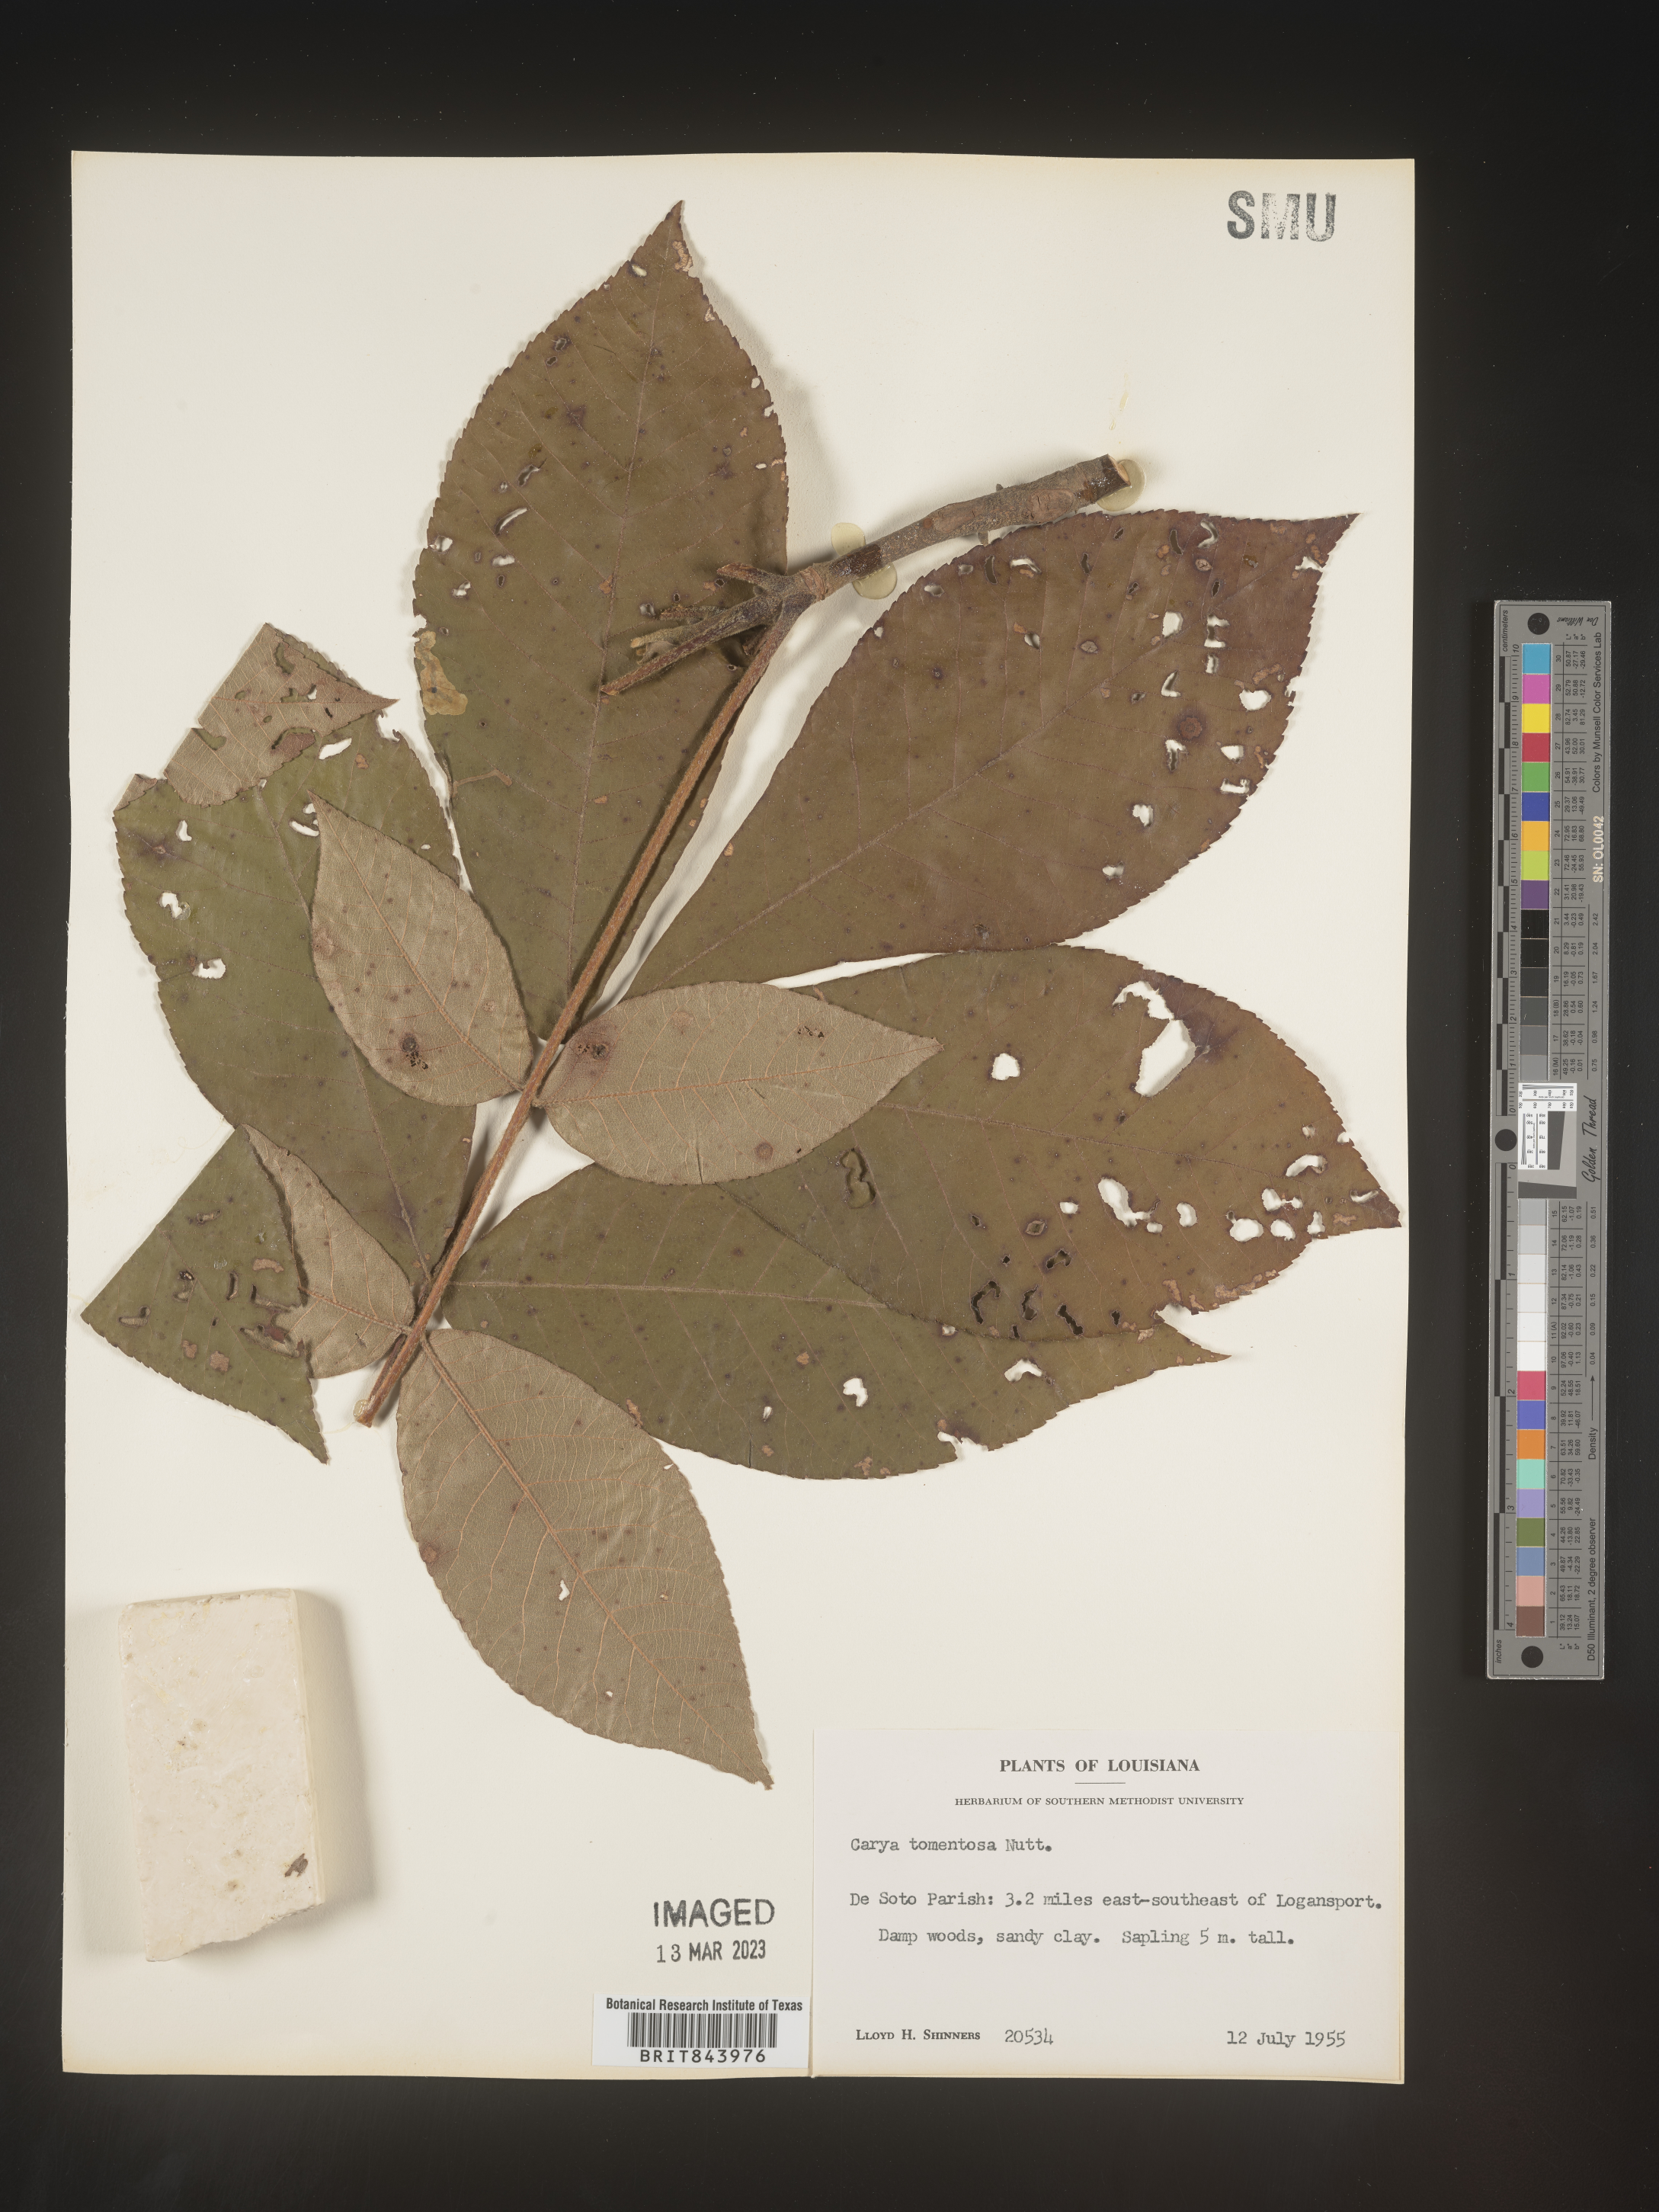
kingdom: Plantae
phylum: Tracheophyta
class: Magnoliopsida
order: Fagales
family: Juglandaceae
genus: Carya
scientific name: Carya alba
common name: Mockernut hickory
